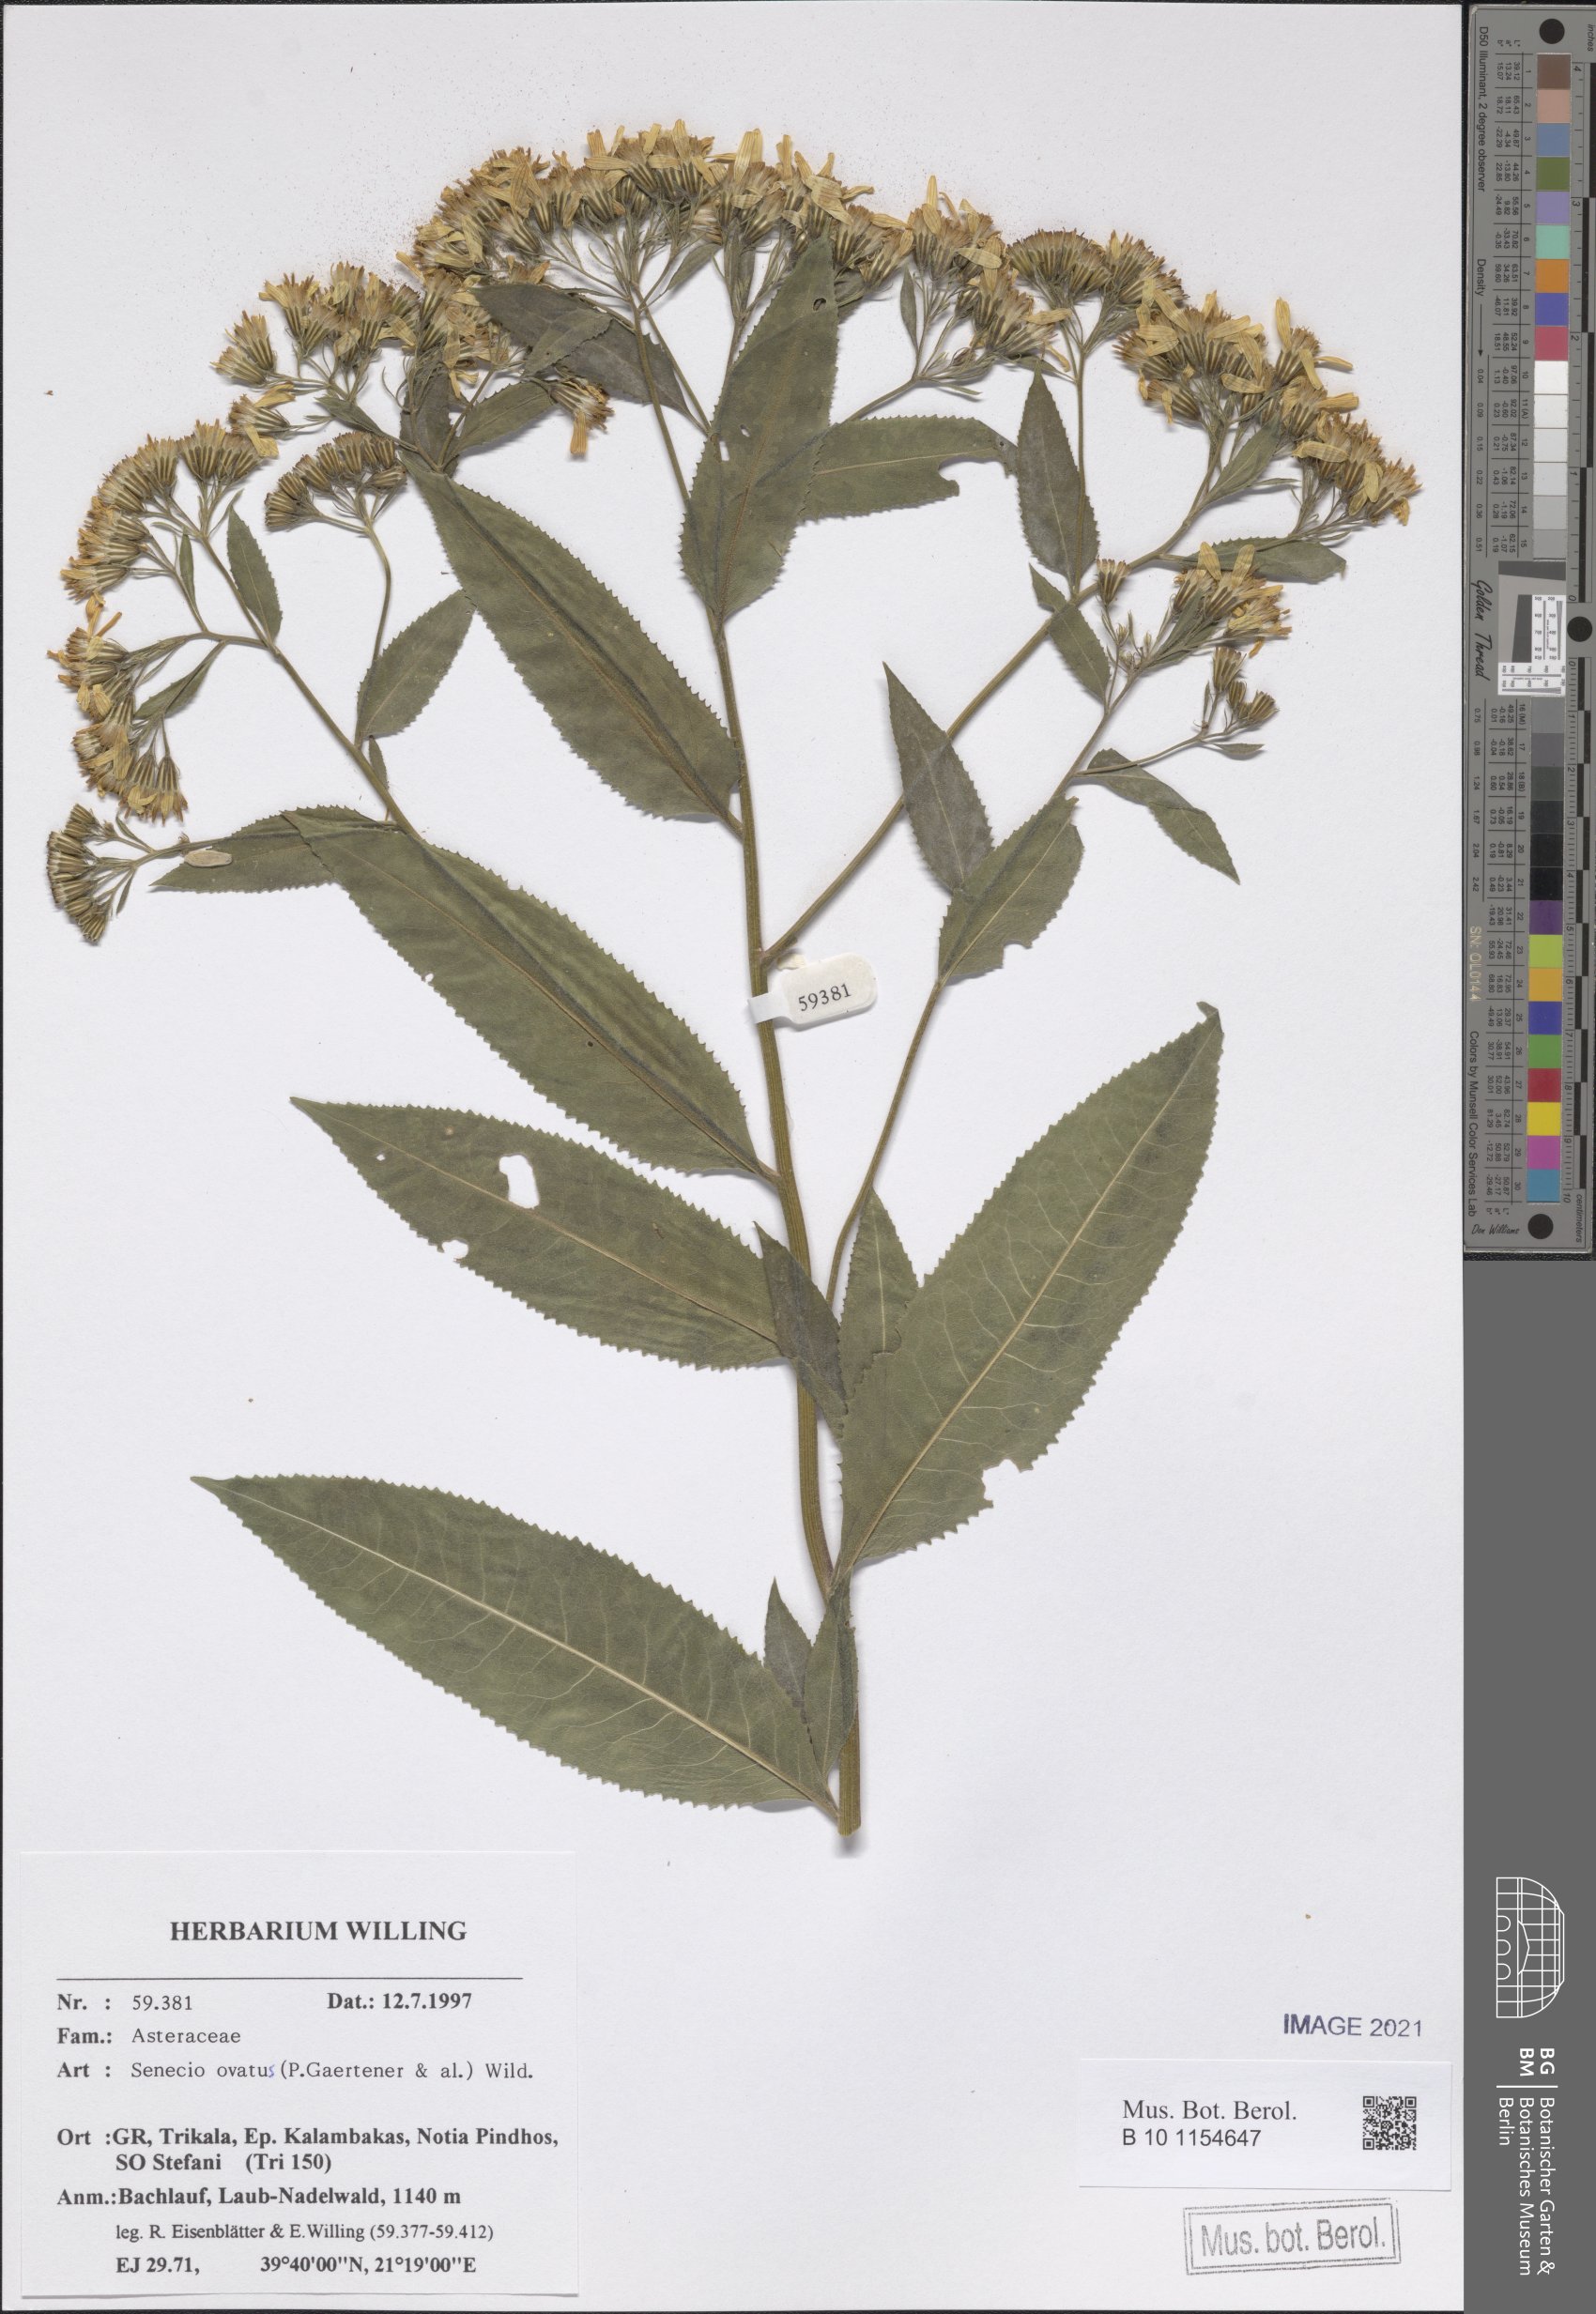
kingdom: Plantae
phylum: Tracheophyta
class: Magnoliopsida
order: Asterales
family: Asteraceae
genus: Senecio
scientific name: Senecio ovatus
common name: Wood ragwort
